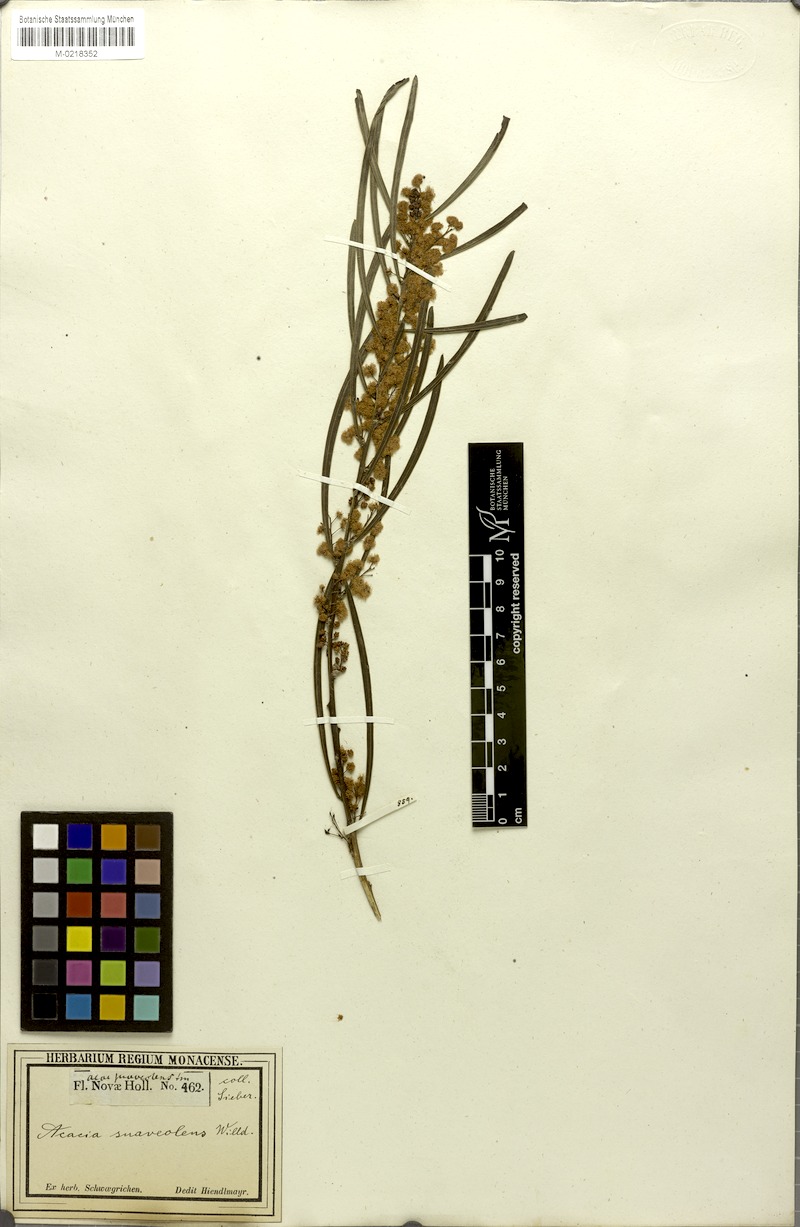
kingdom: Plantae
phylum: Tracheophyta
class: Magnoliopsida
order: Fabales
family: Fabaceae
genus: Acacia
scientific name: Acacia suaveolens
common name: Sweet acacia
